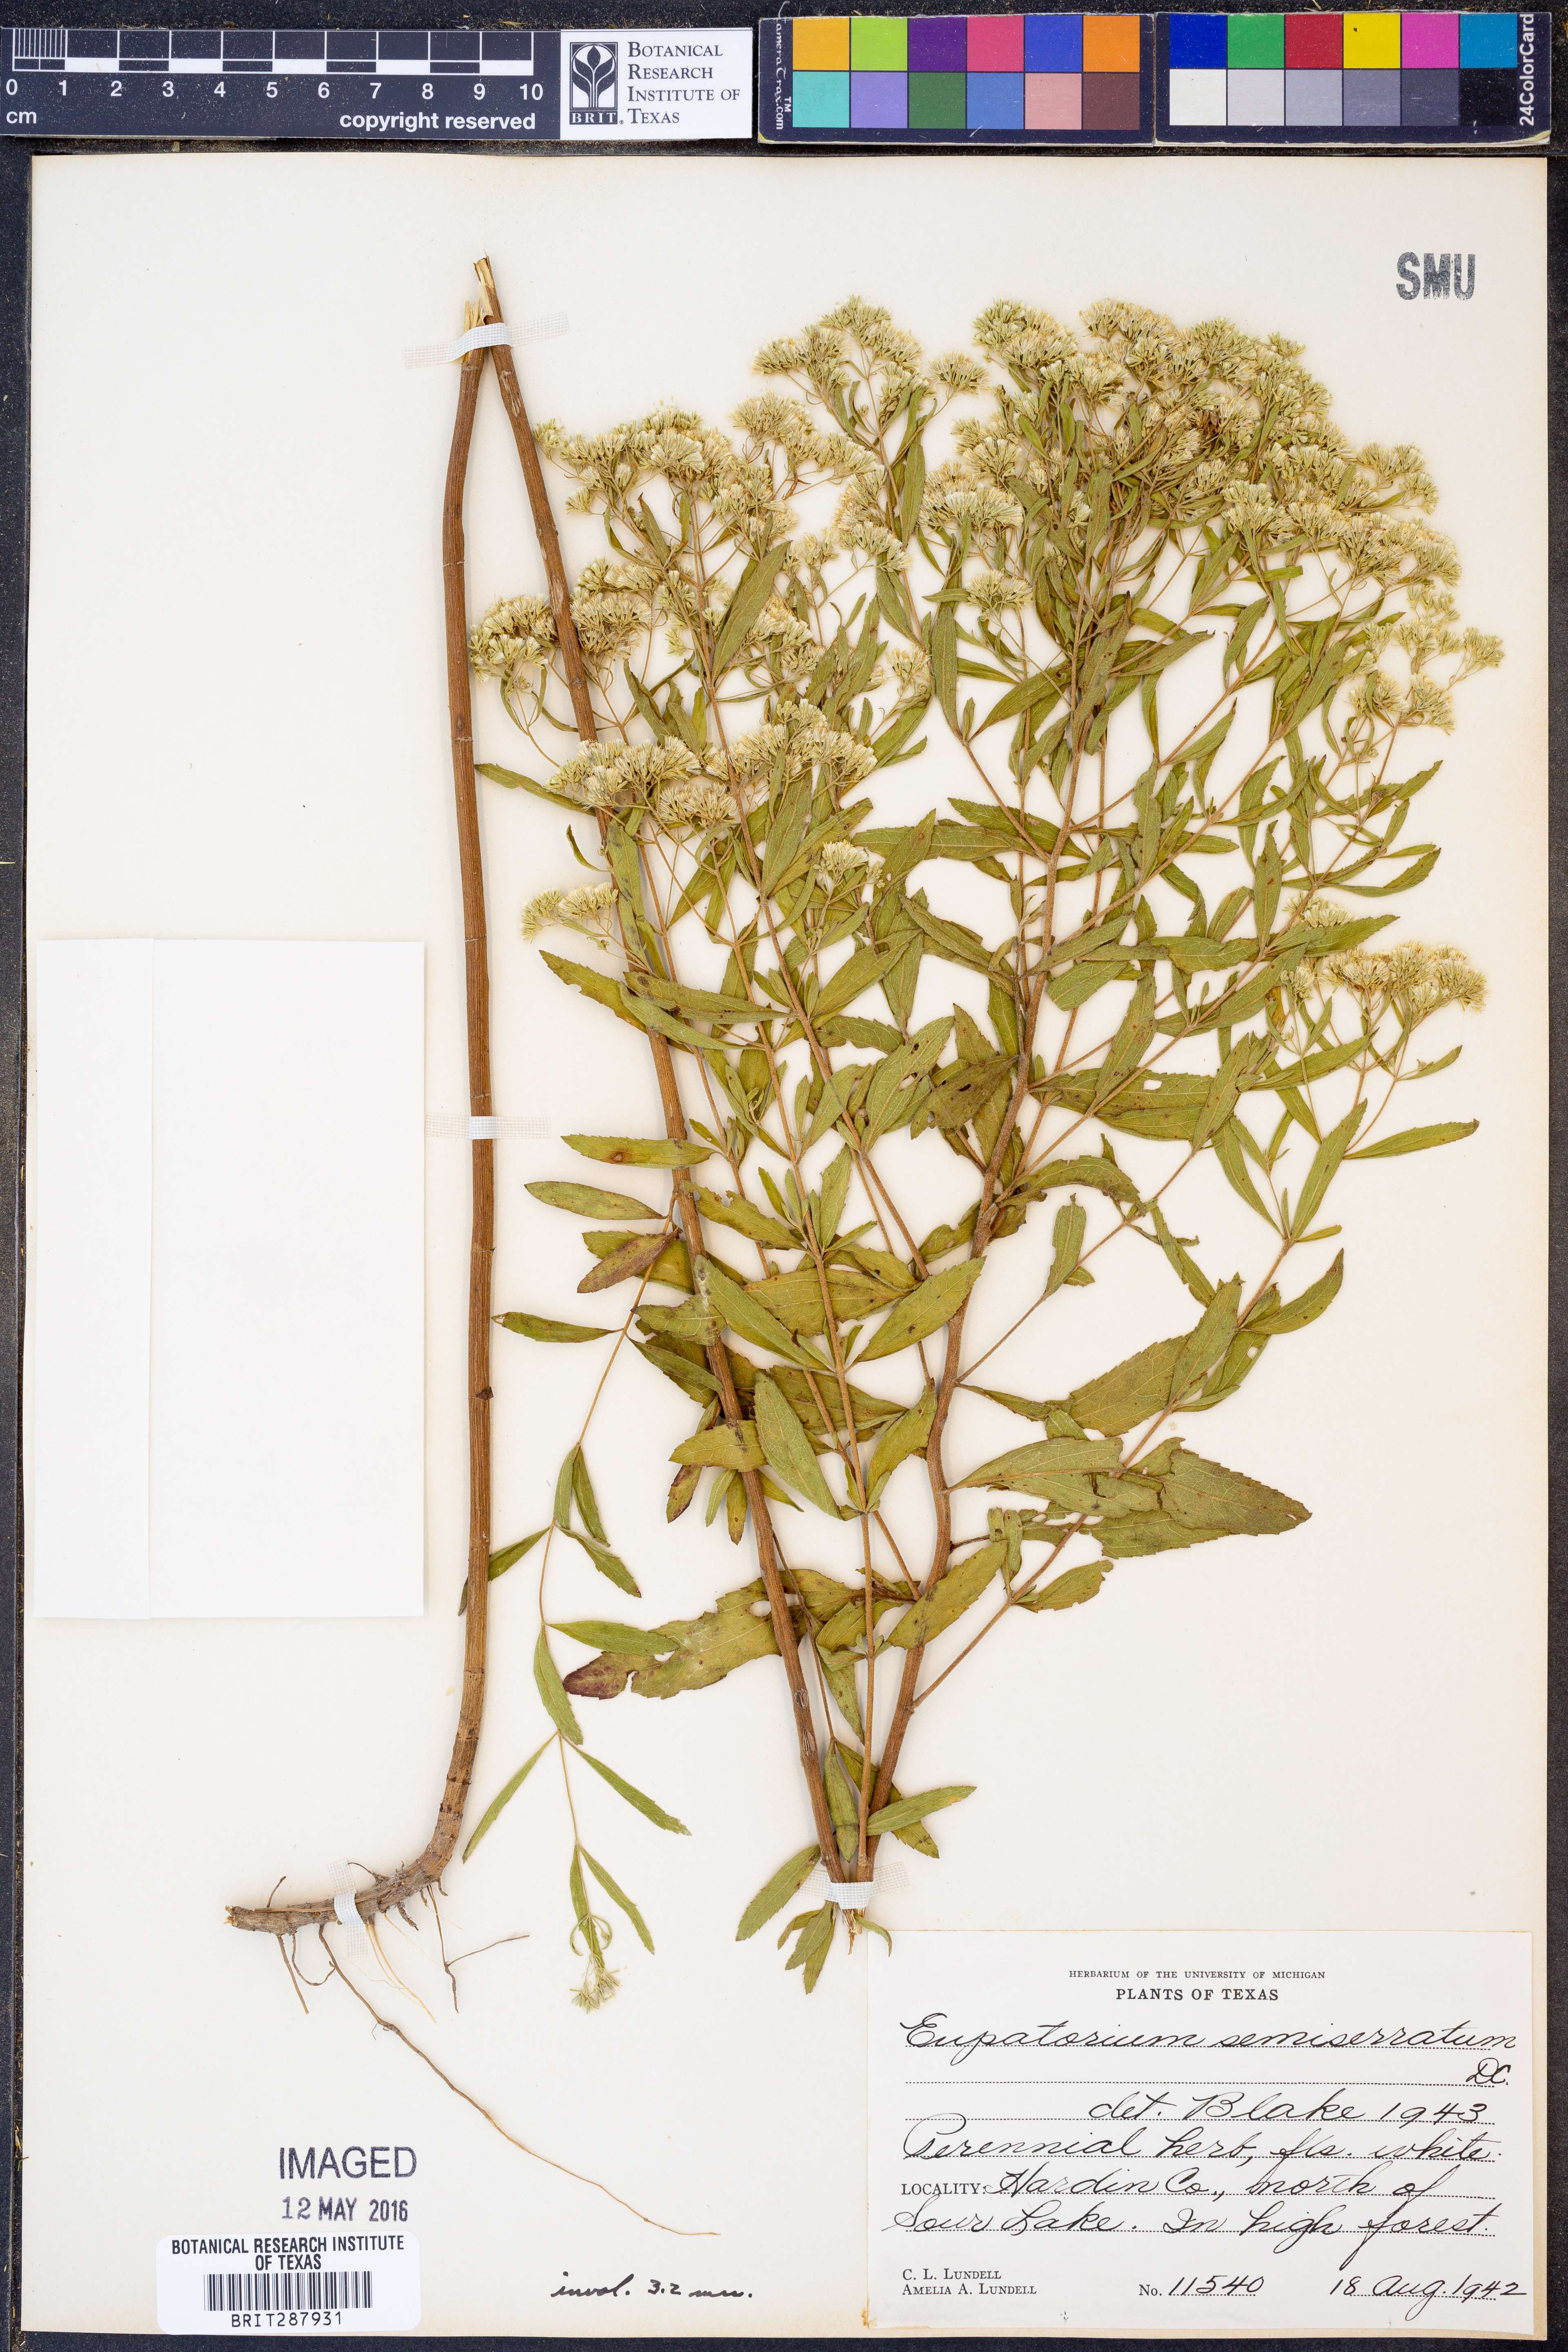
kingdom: Plantae
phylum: Tracheophyta
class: Magnoliopsida
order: Asterales
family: Asteraceae
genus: Eupatorium
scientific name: Eupatorium semiserratum
